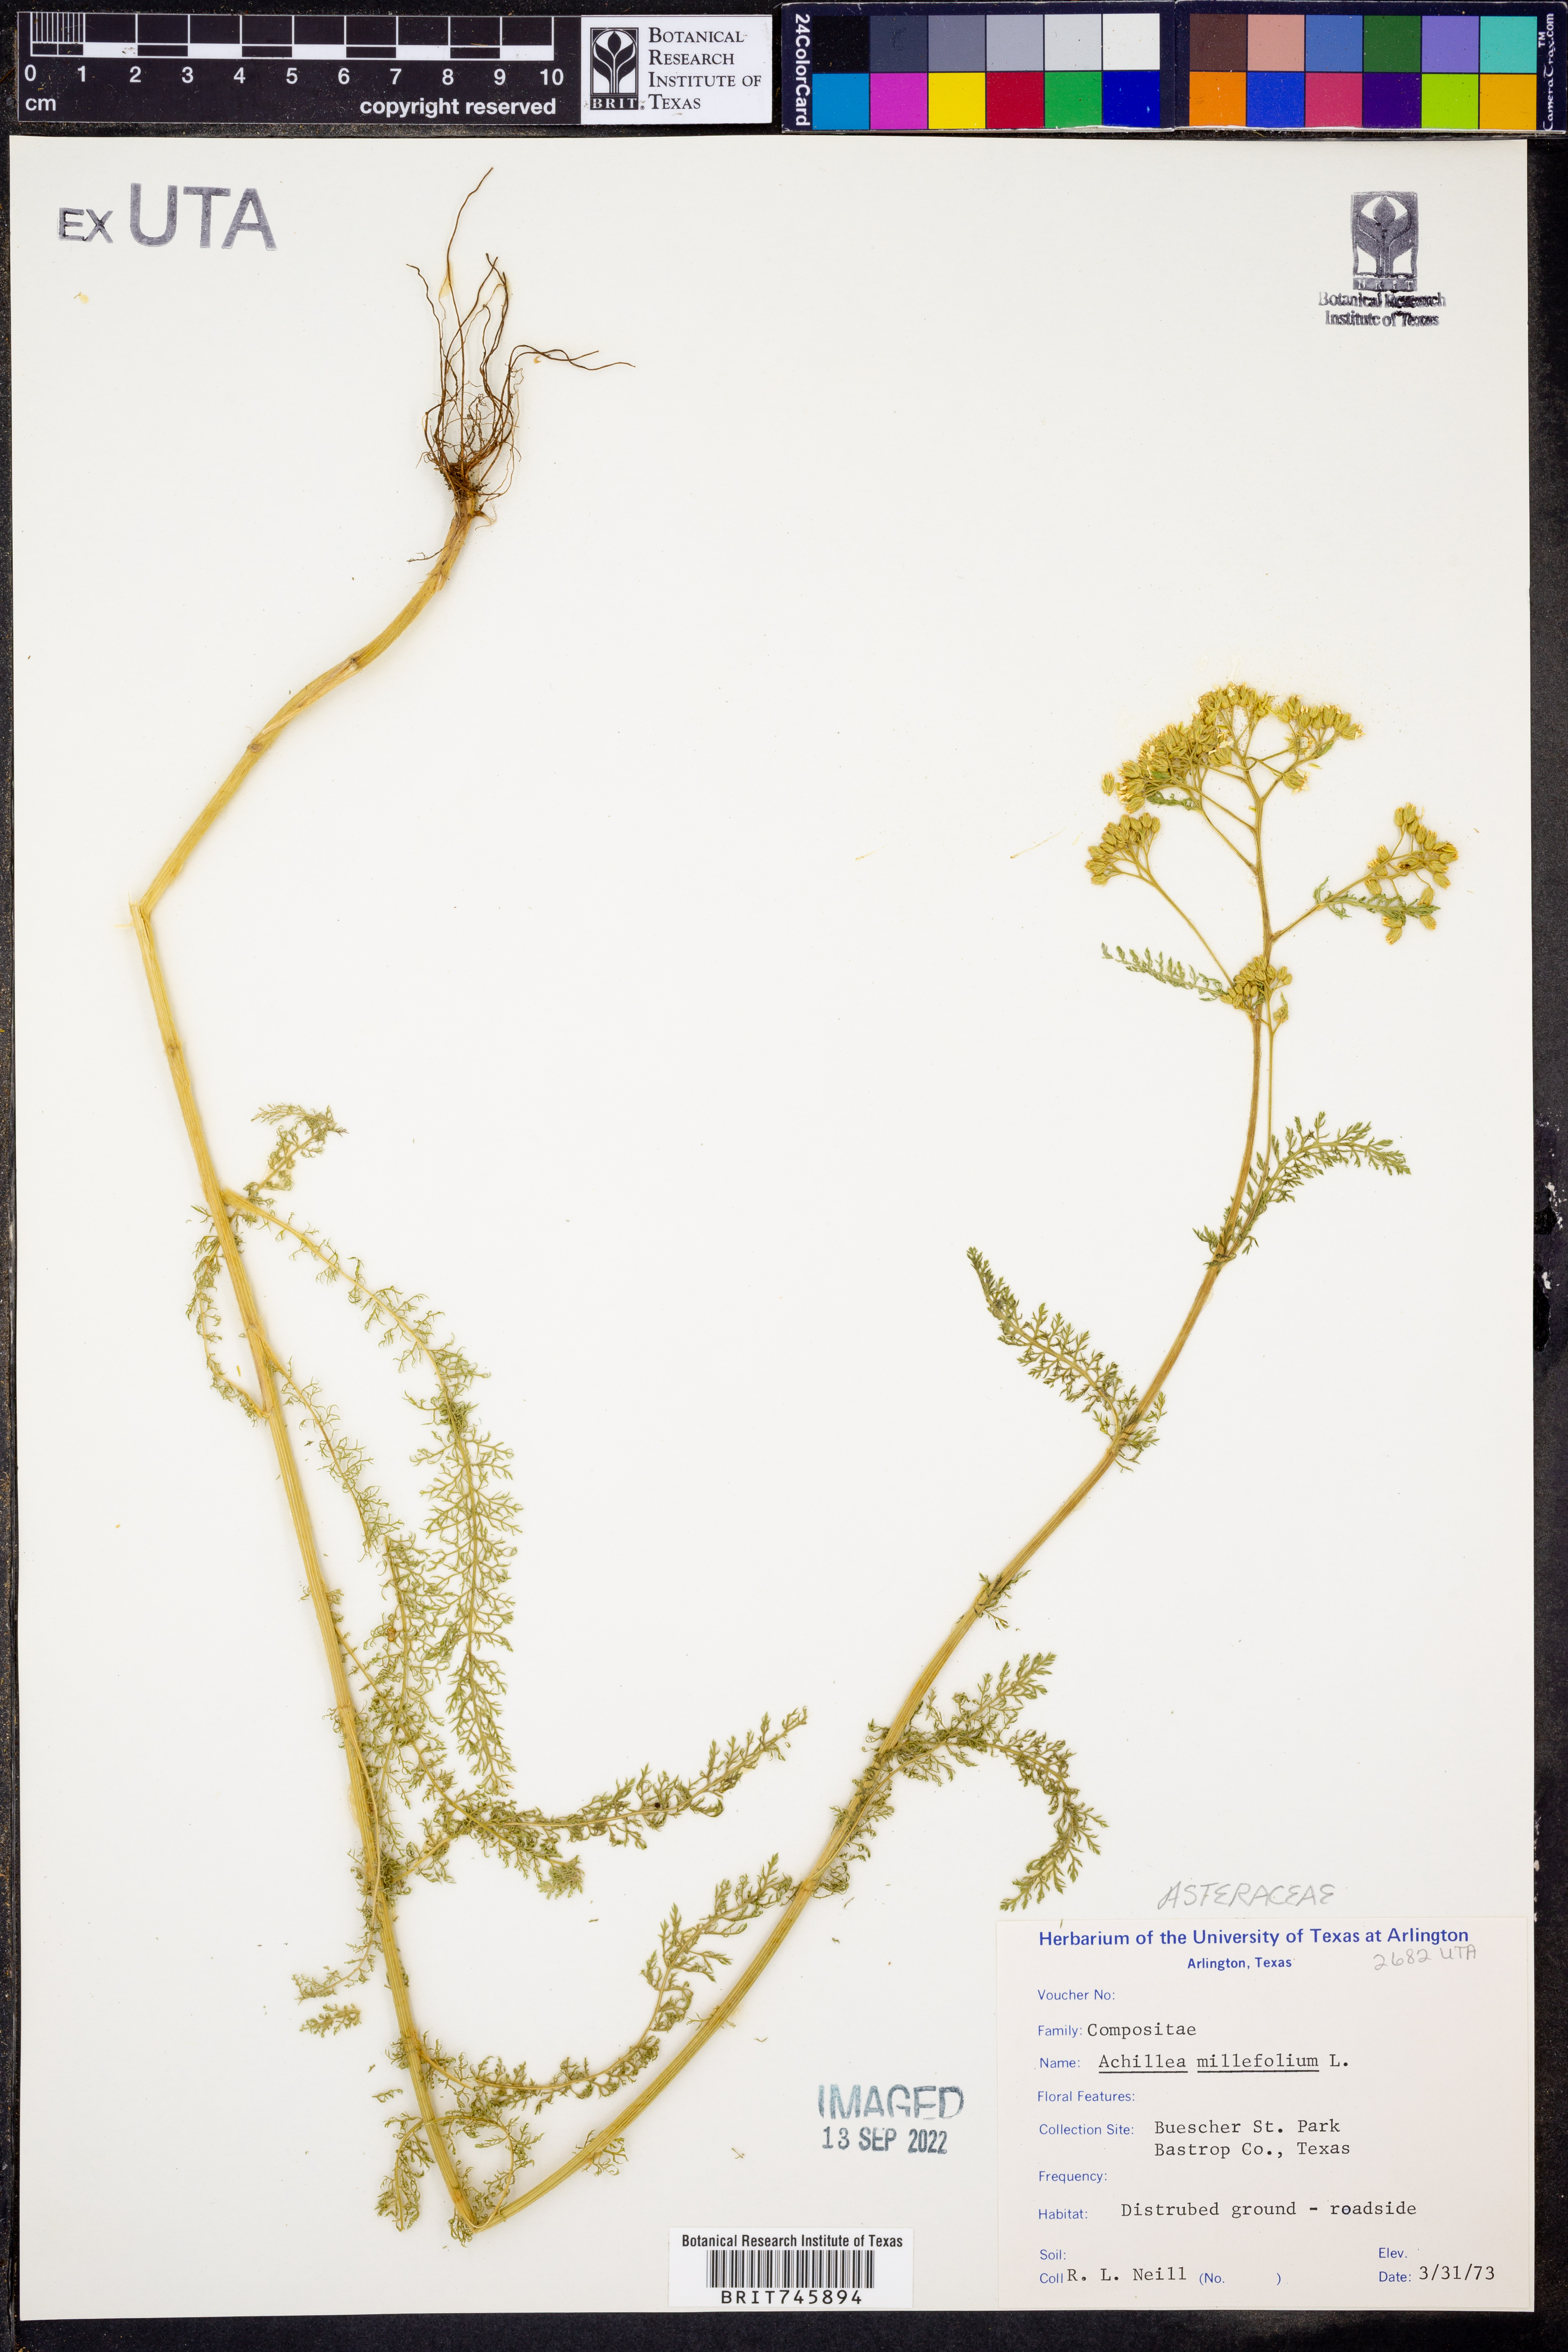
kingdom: Plantae
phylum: Tracheophyta
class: Magnoliopsida
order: Asterales
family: Asteraceae
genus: Achillea
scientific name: Achillea millefolium
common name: Yarrow
